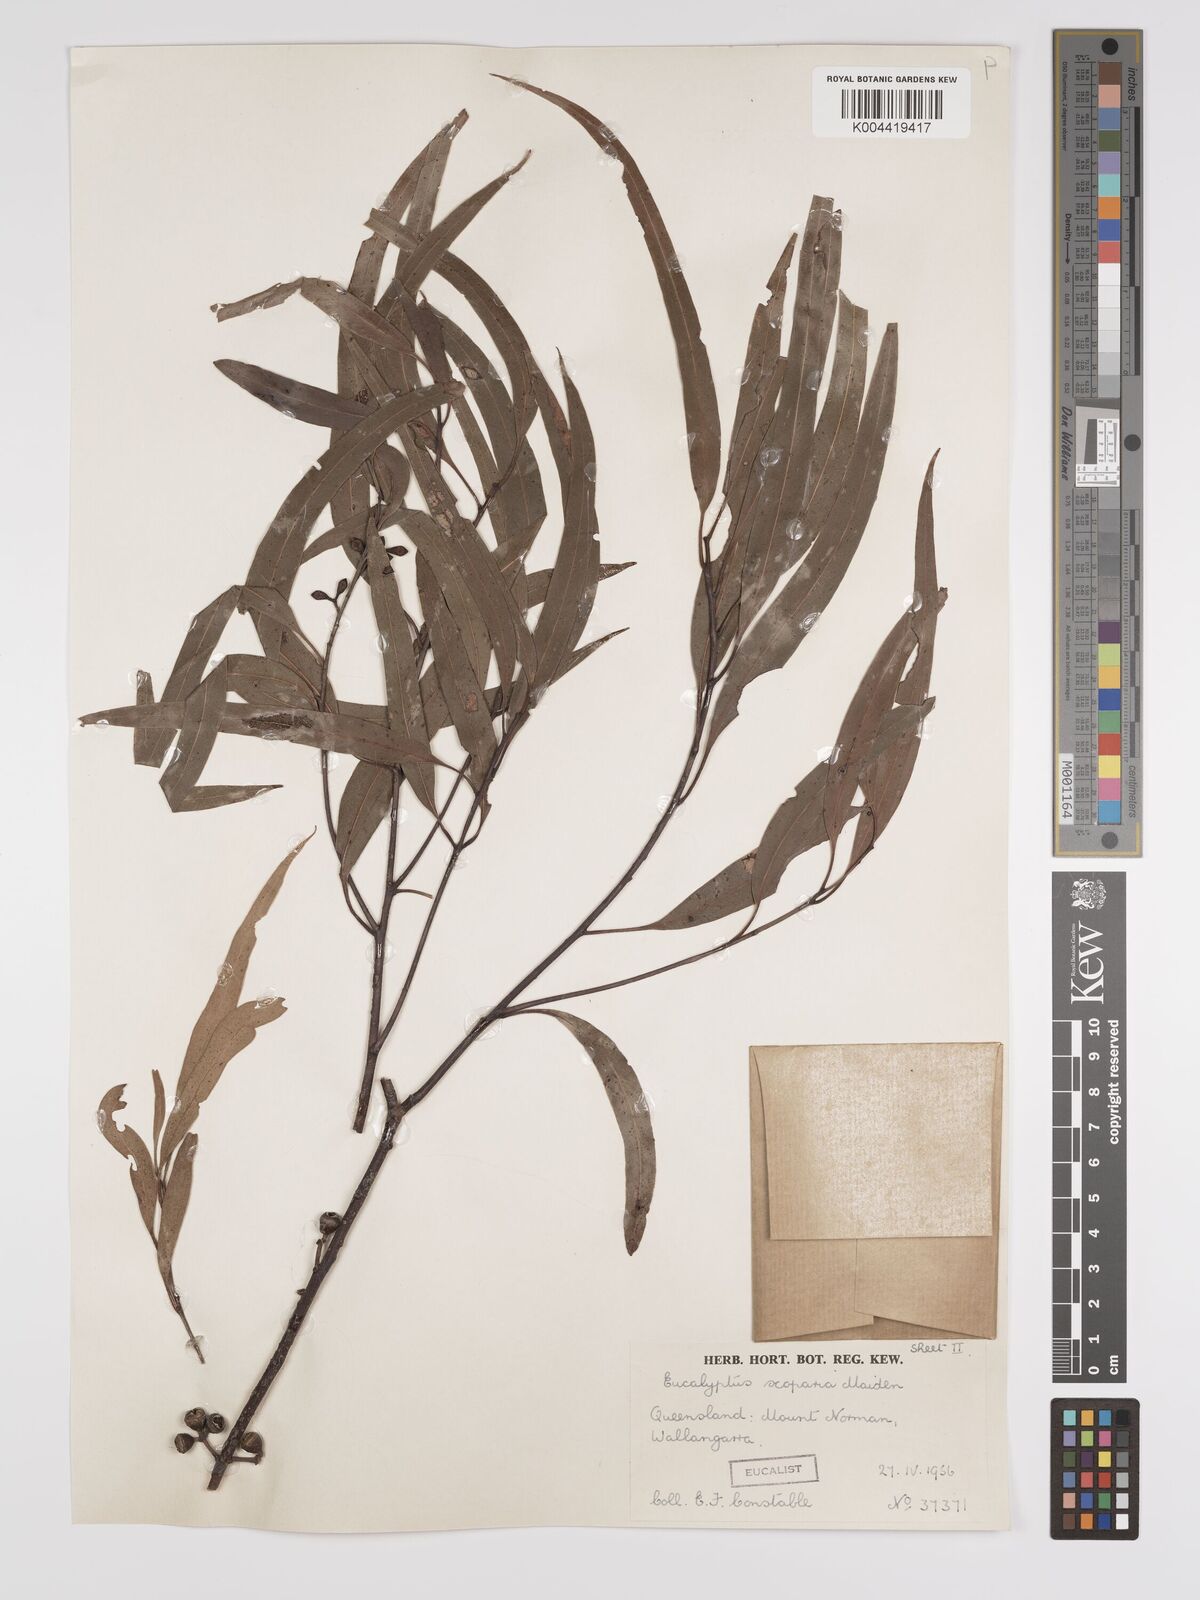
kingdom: Plantae
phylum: Tracheophyta
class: Magnoliopsida
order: Myrtales
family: Myrtaceae
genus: Eucalyptus
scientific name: Eucalyptus scoparia
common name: Wallangarra white gum
